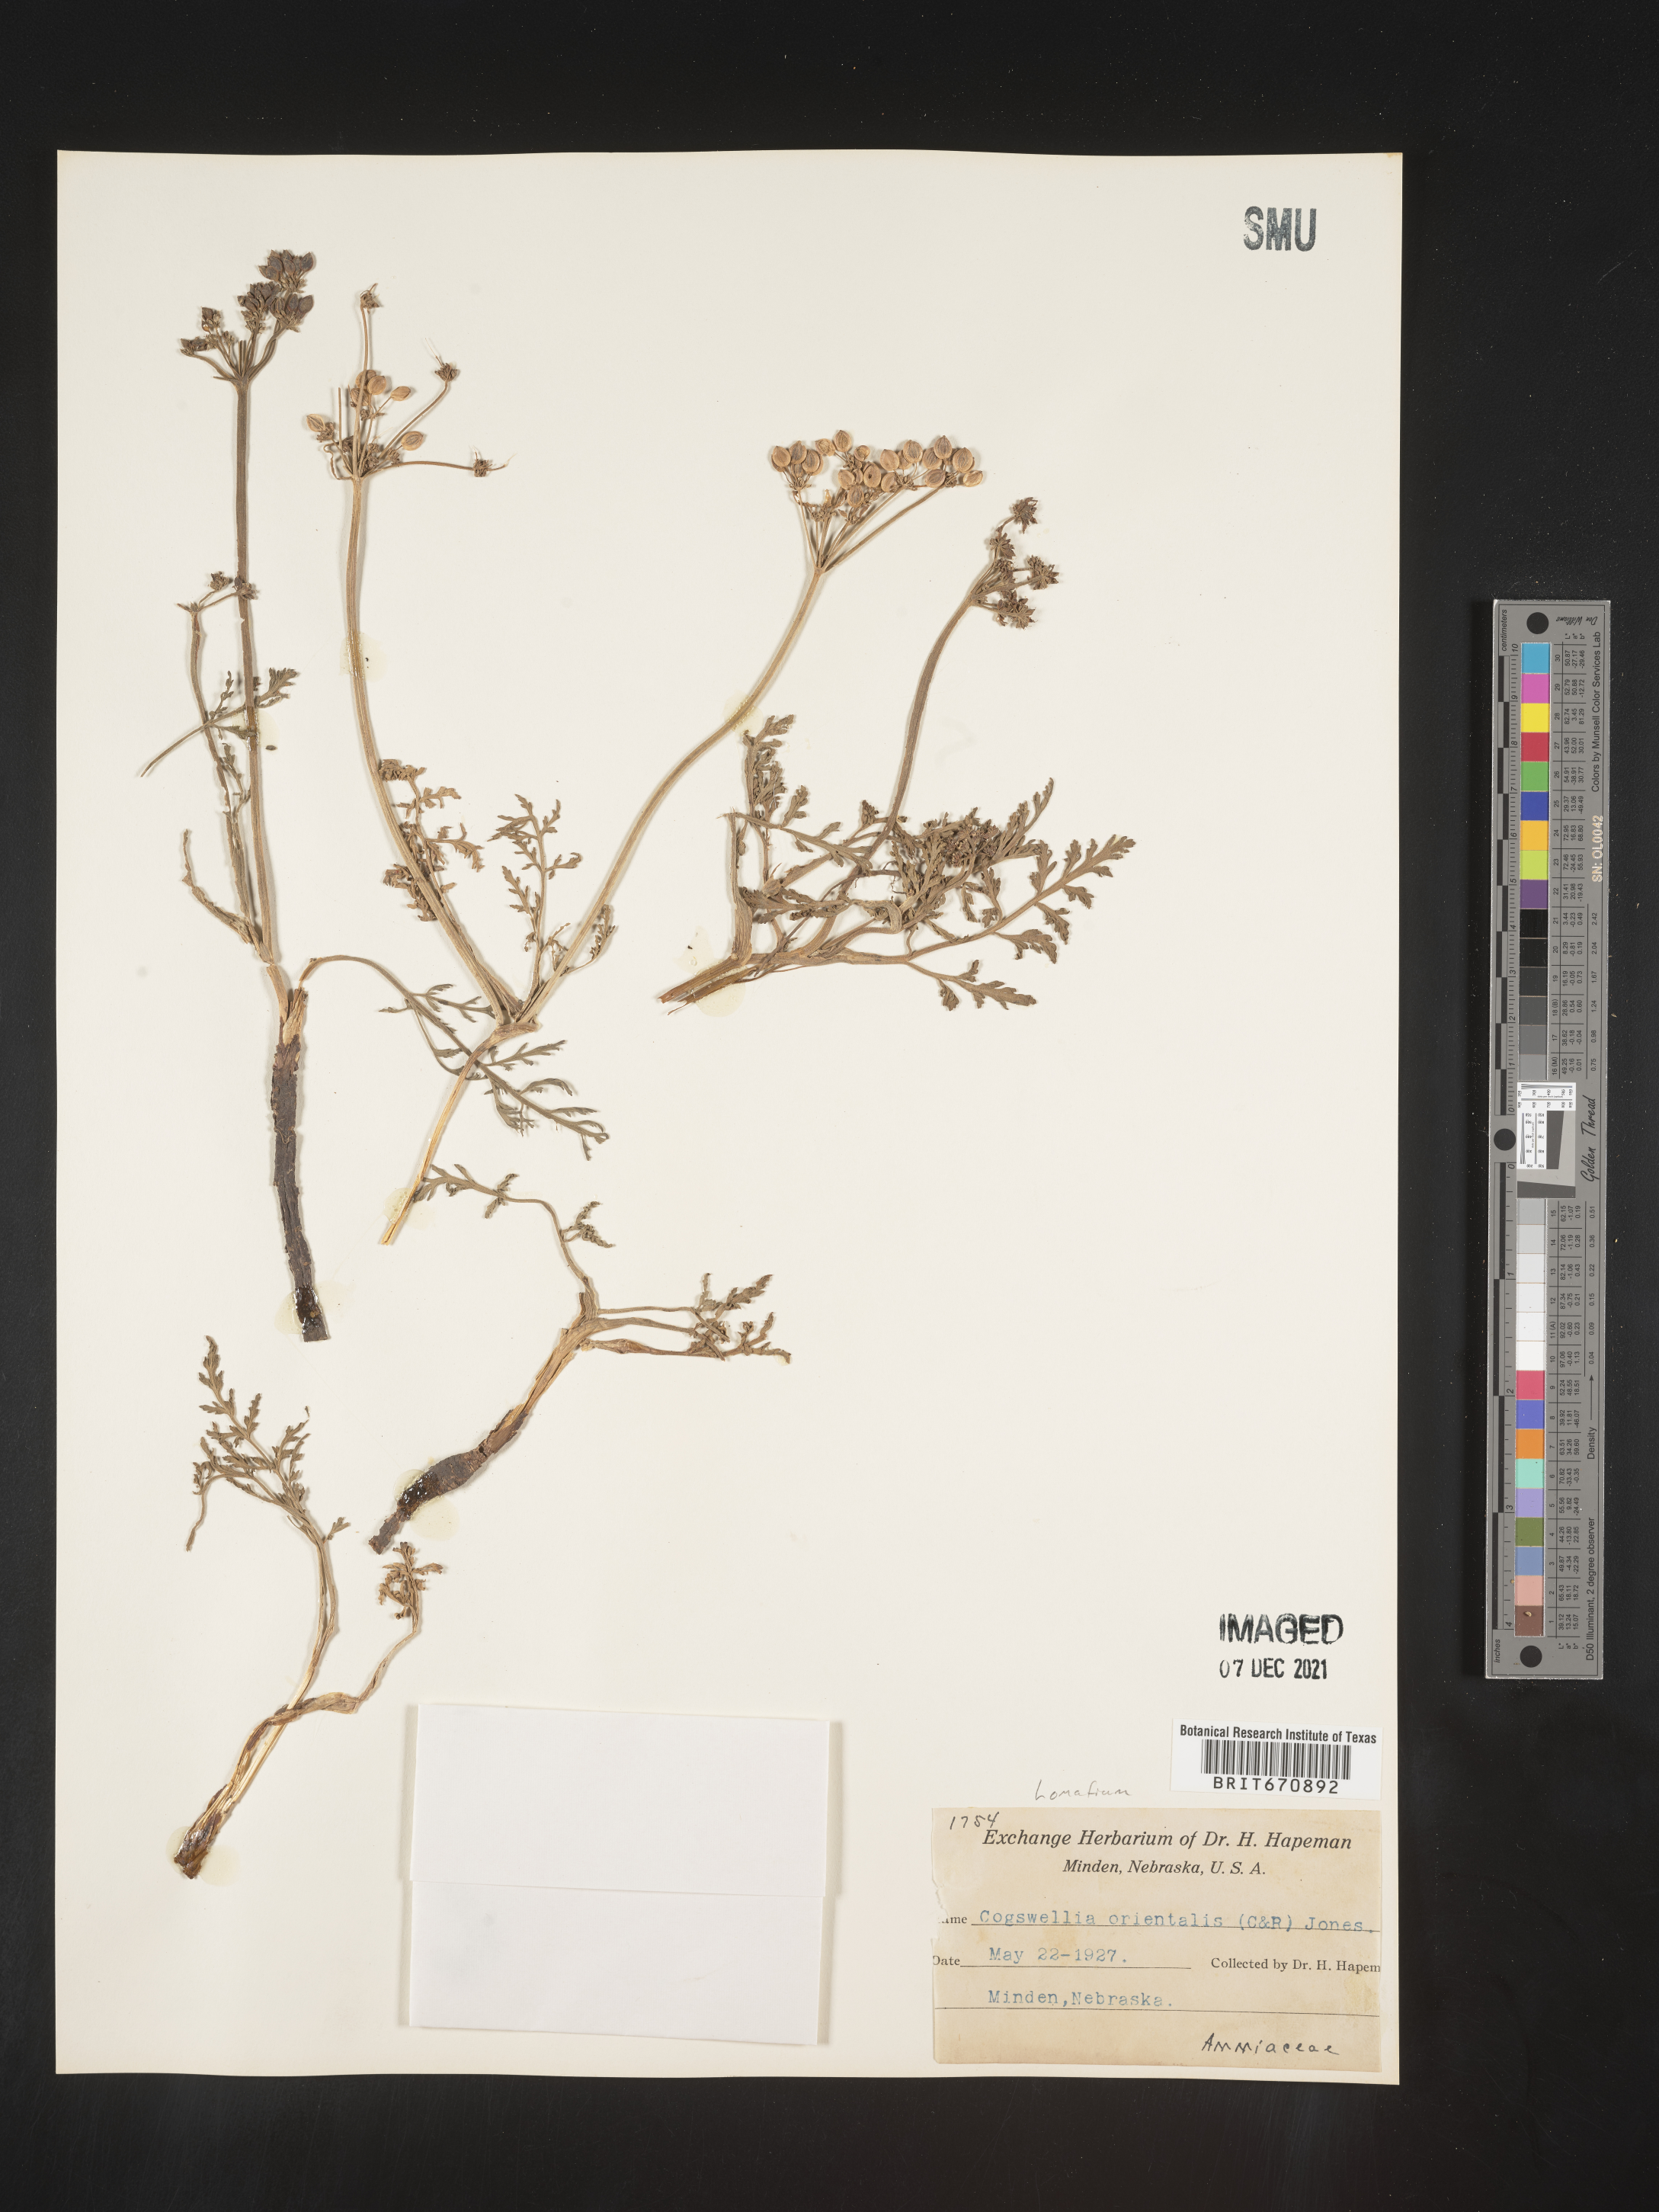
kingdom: Plantae
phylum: Tracheophyta
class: Magnoliopsida
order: Apiales
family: Apiaceae
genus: Lomatium
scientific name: Lomatium
